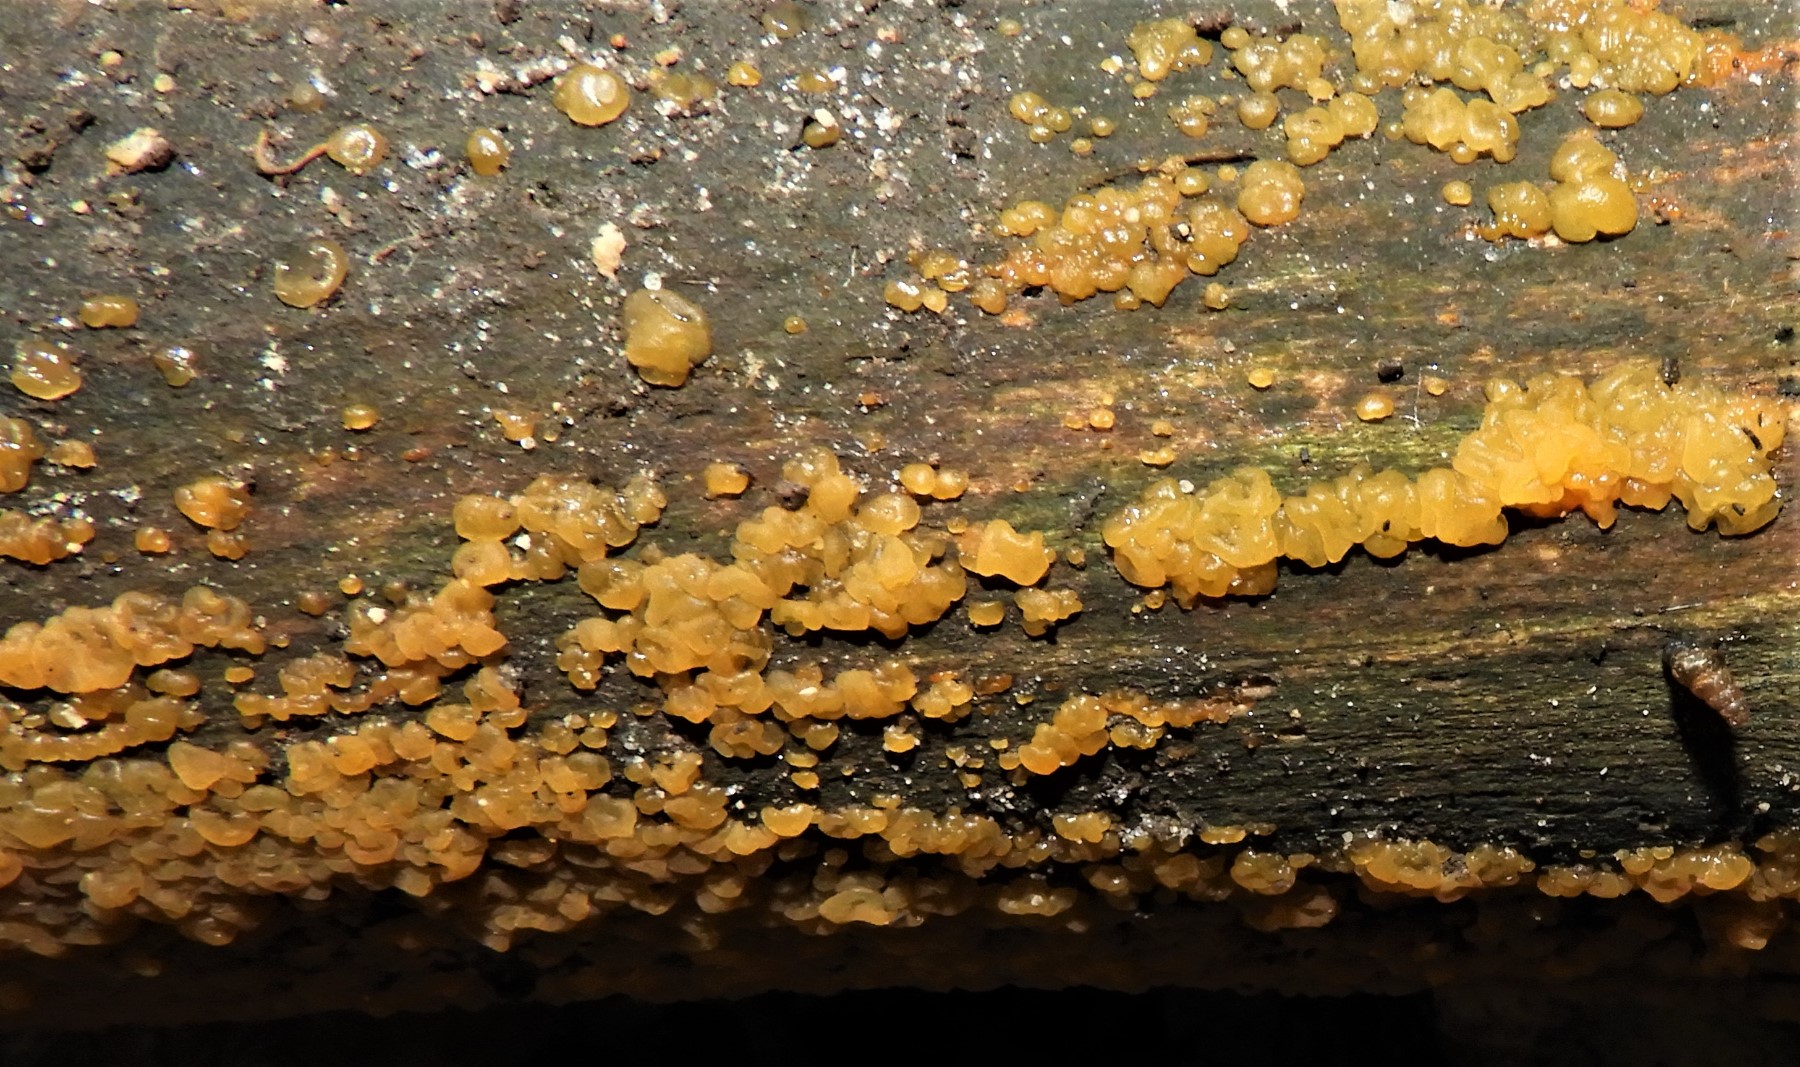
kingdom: Fungi
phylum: Basidiomycota
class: Dacrymycetes
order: Dacrymycetales
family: Dacrymycetaceae
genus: Dacrymyces
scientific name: Dacrymyces stillatus
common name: almindelig tåresvamp
